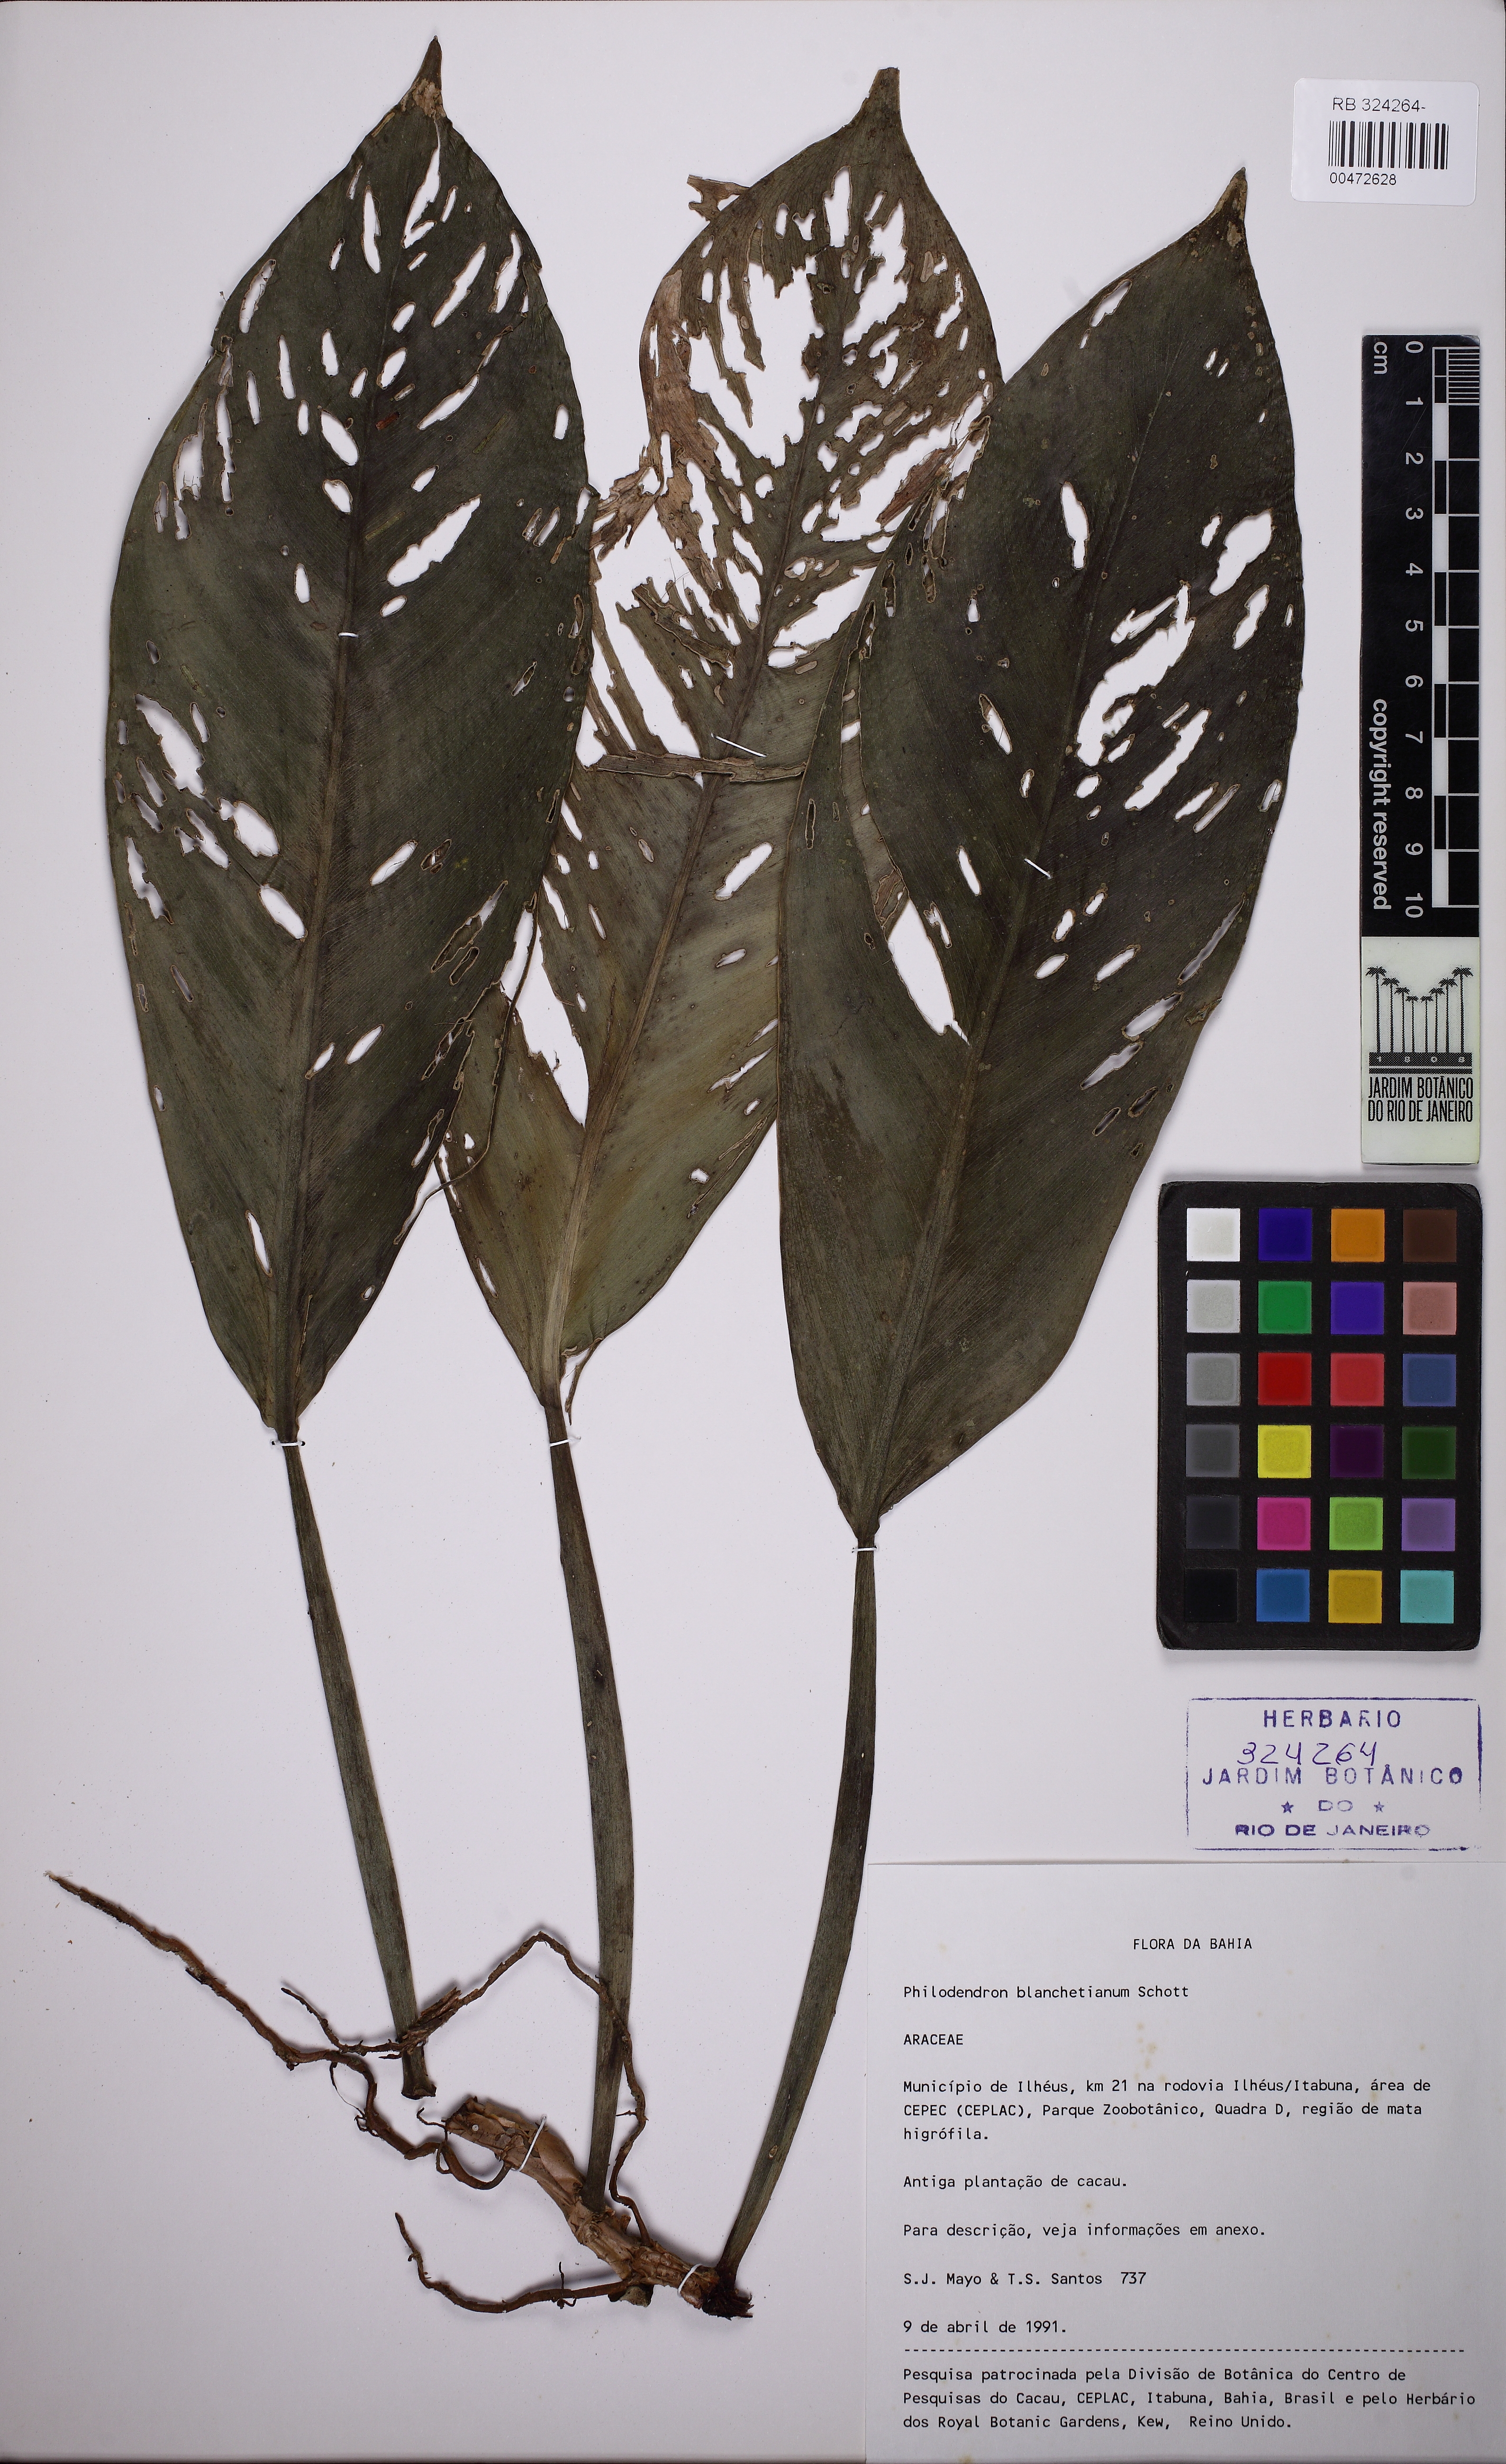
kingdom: Plantae
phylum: Tracheophyta
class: Liliopsida
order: Alismatales
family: Araceae
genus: Philodendron
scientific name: Philodendron blanchetianum
